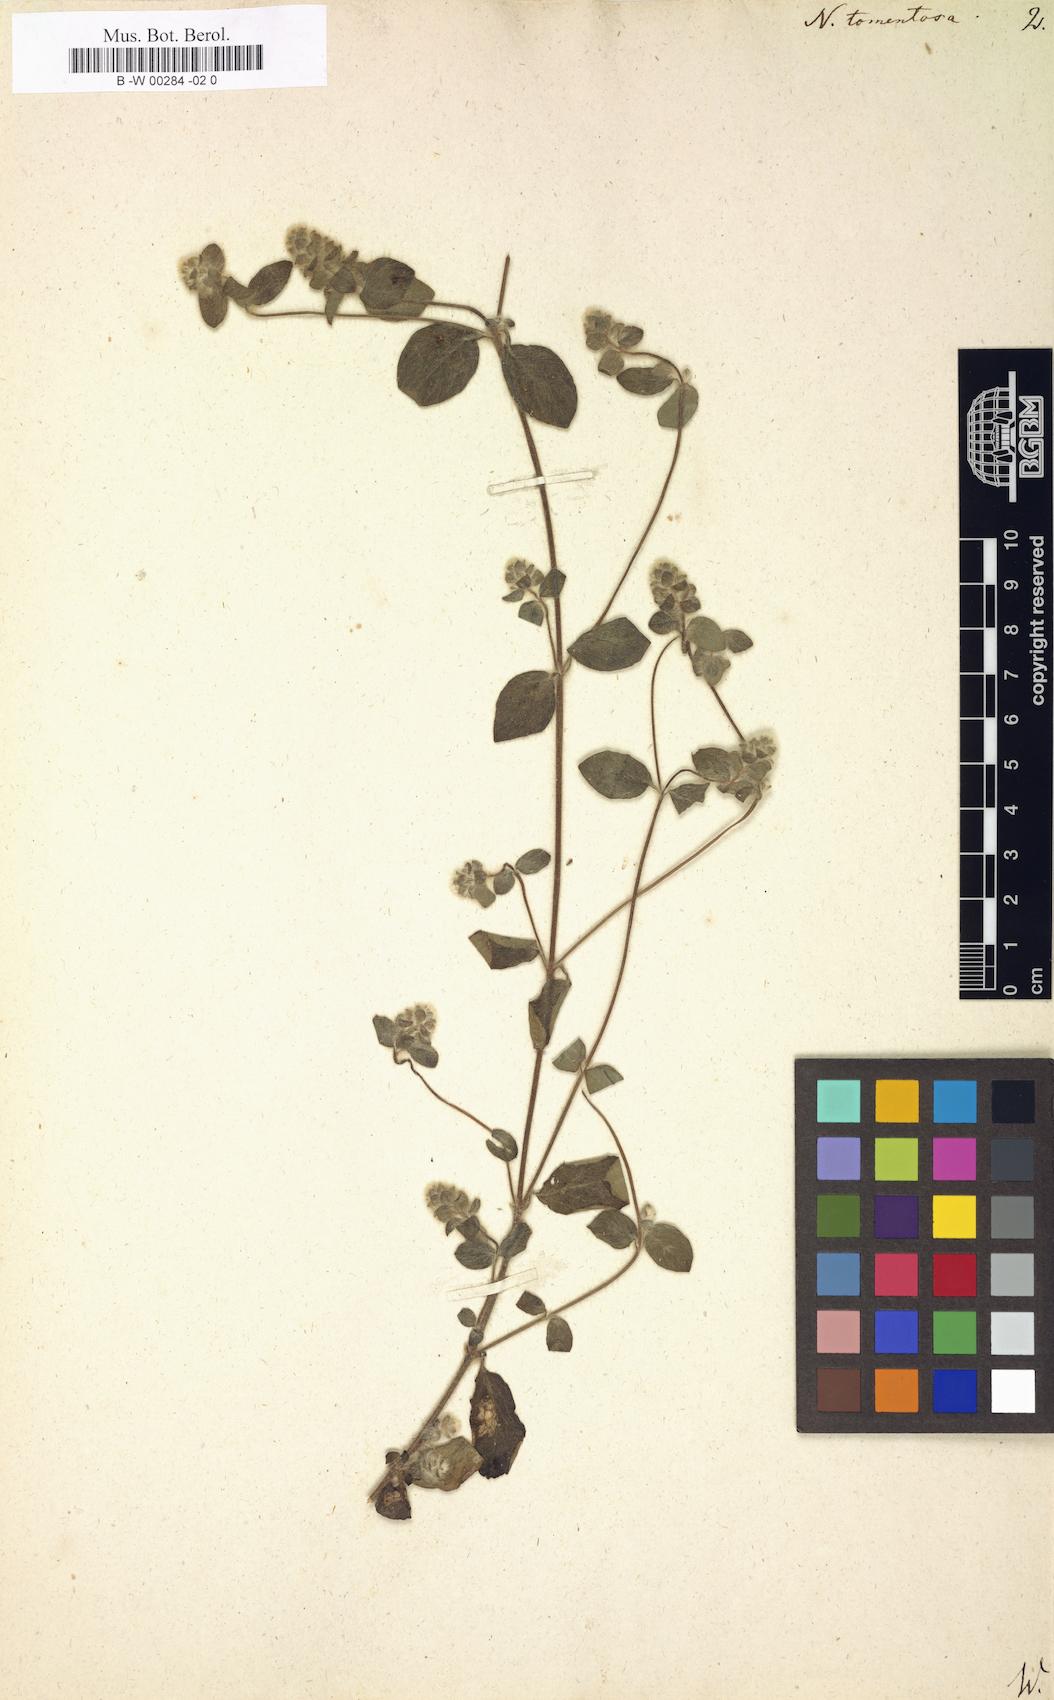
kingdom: Plantae
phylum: Tracheophyta
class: Magnoliopsida
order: Lamiales
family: Acanthaceae
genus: Nelsonia
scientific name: Nelsonia canescens
